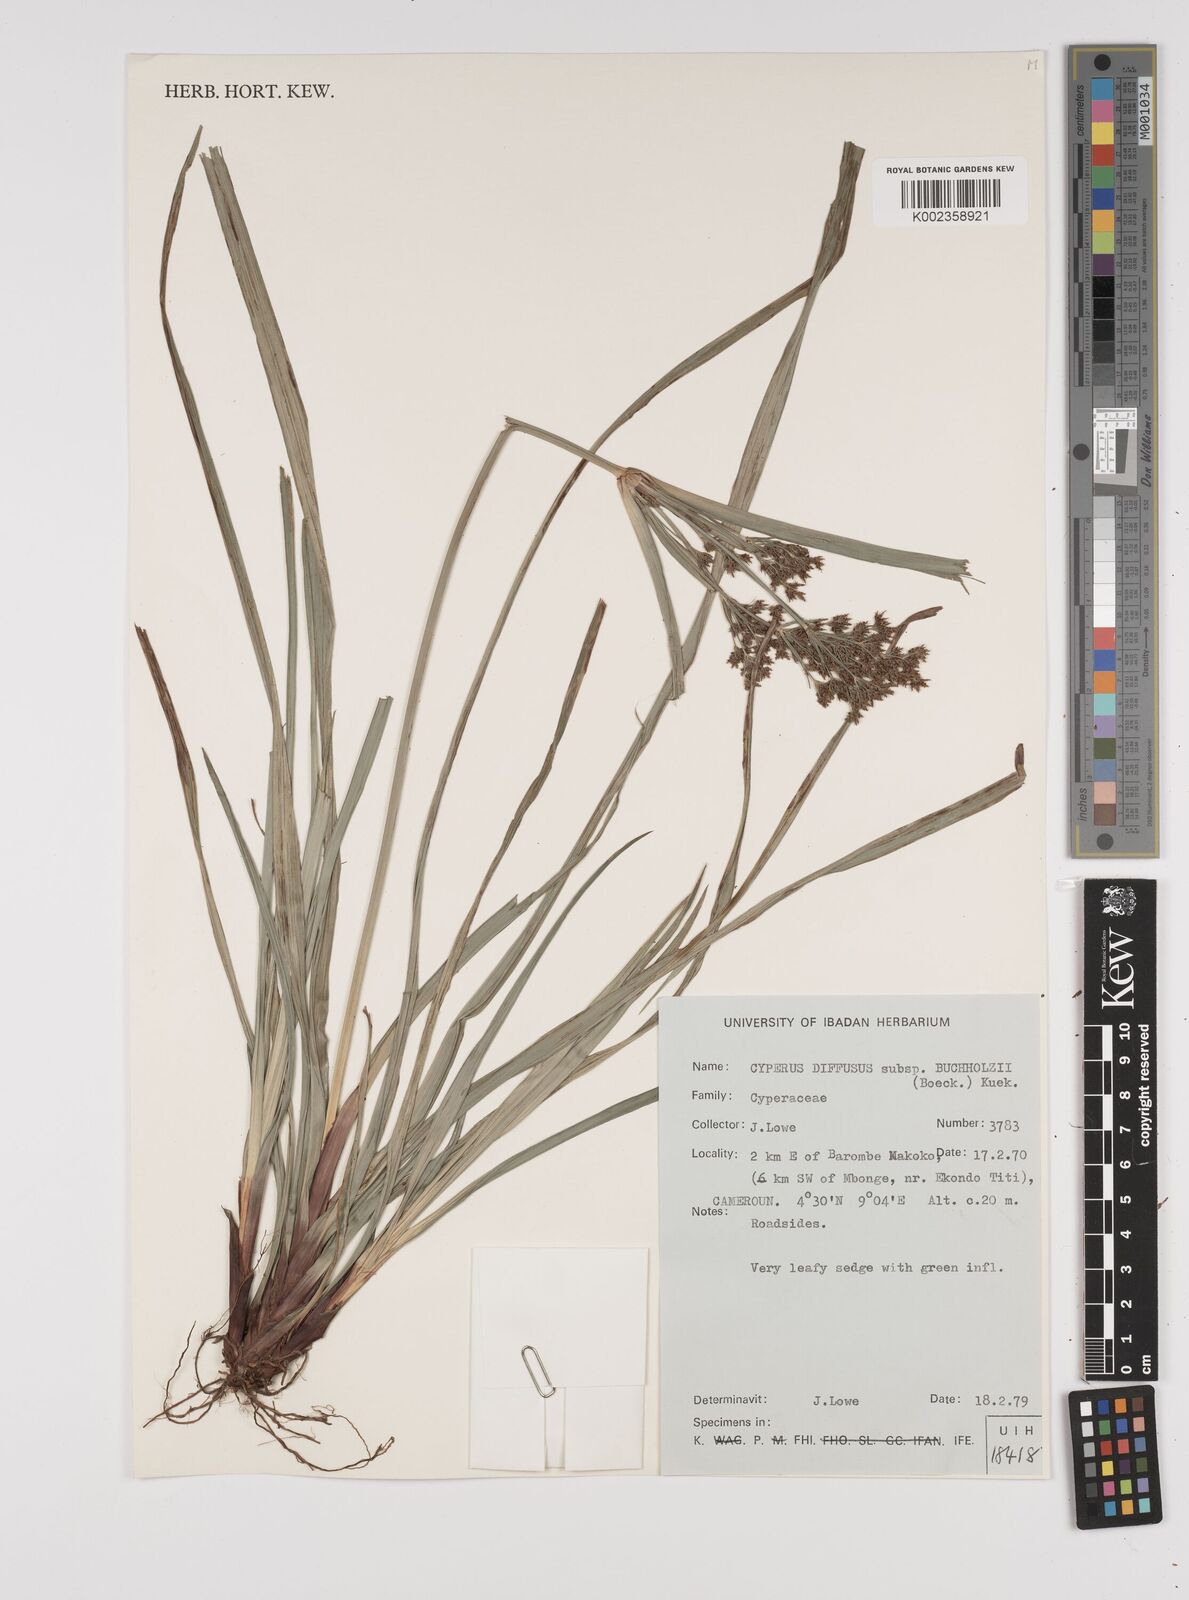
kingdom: Plantae
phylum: Tracheophyta
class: Liliopsida
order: Poales
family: Cyperaceae
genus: Cyperus
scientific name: Cyperus buchholzii
